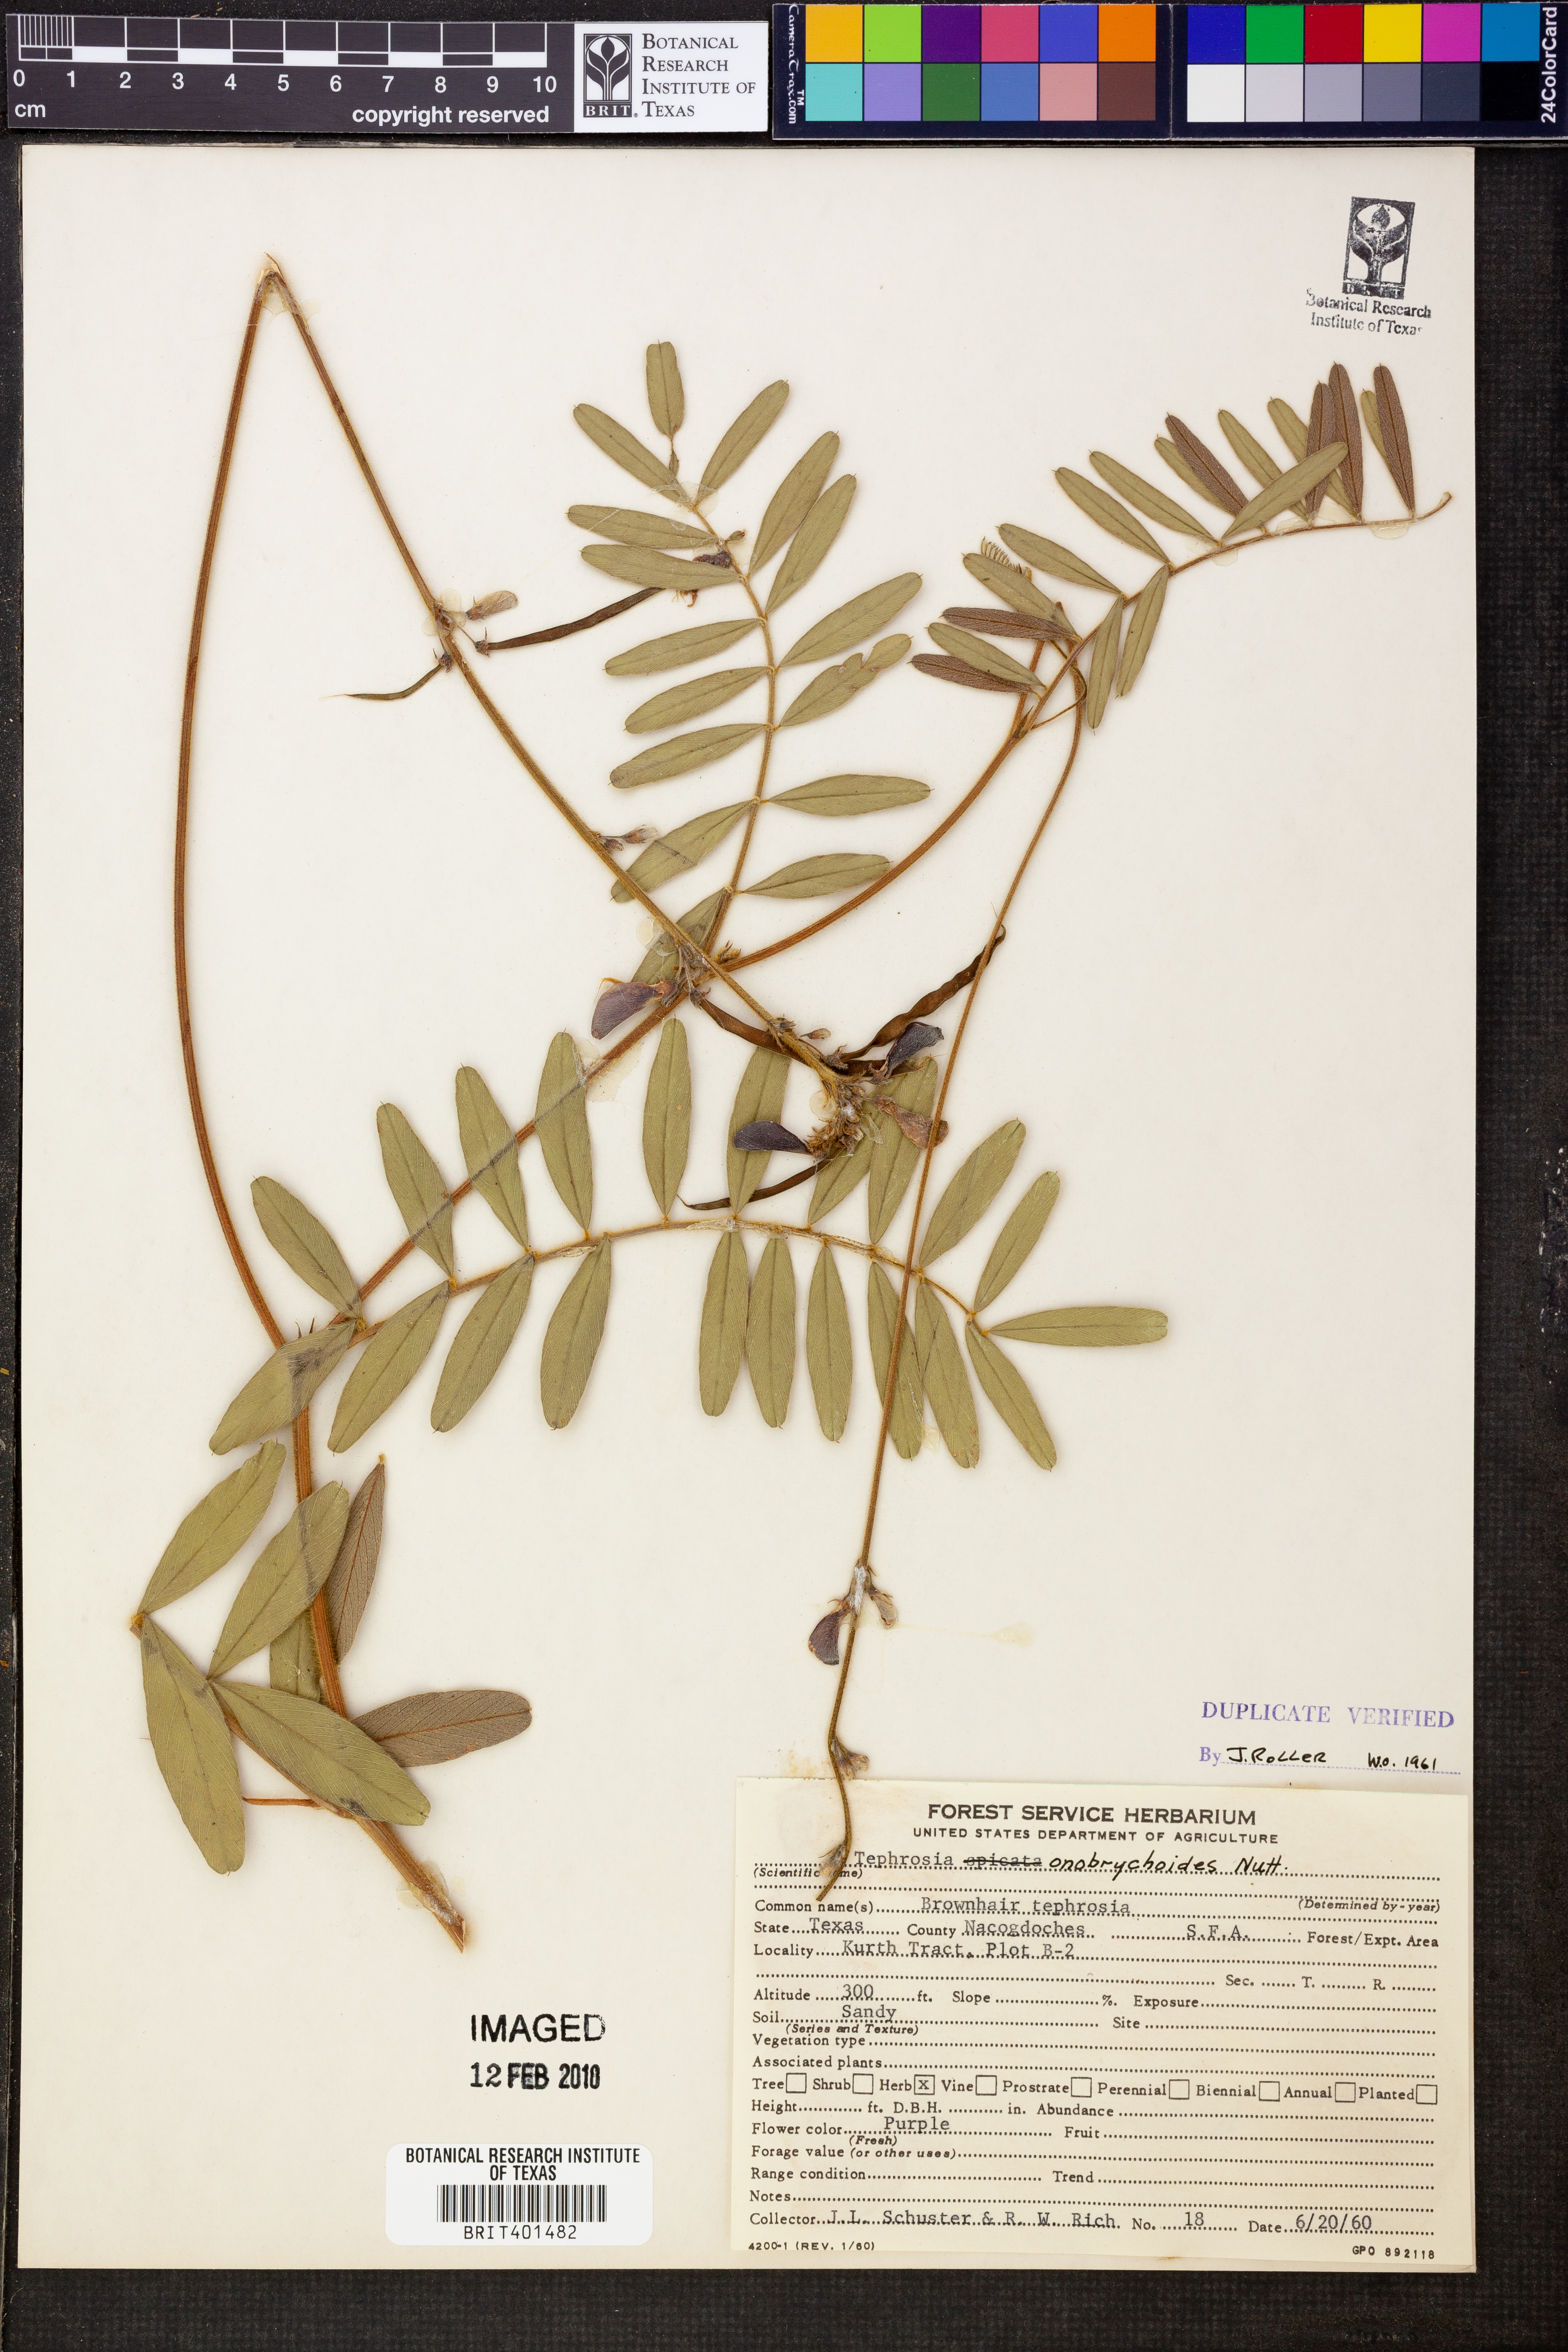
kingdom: Plantae
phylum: Tracheophyta
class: Magnoliopsida
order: Fabales
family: Fabaceae
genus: Tephrosia
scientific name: Tephrosia onobrychoides
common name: Multi-bloom hoary-pea
